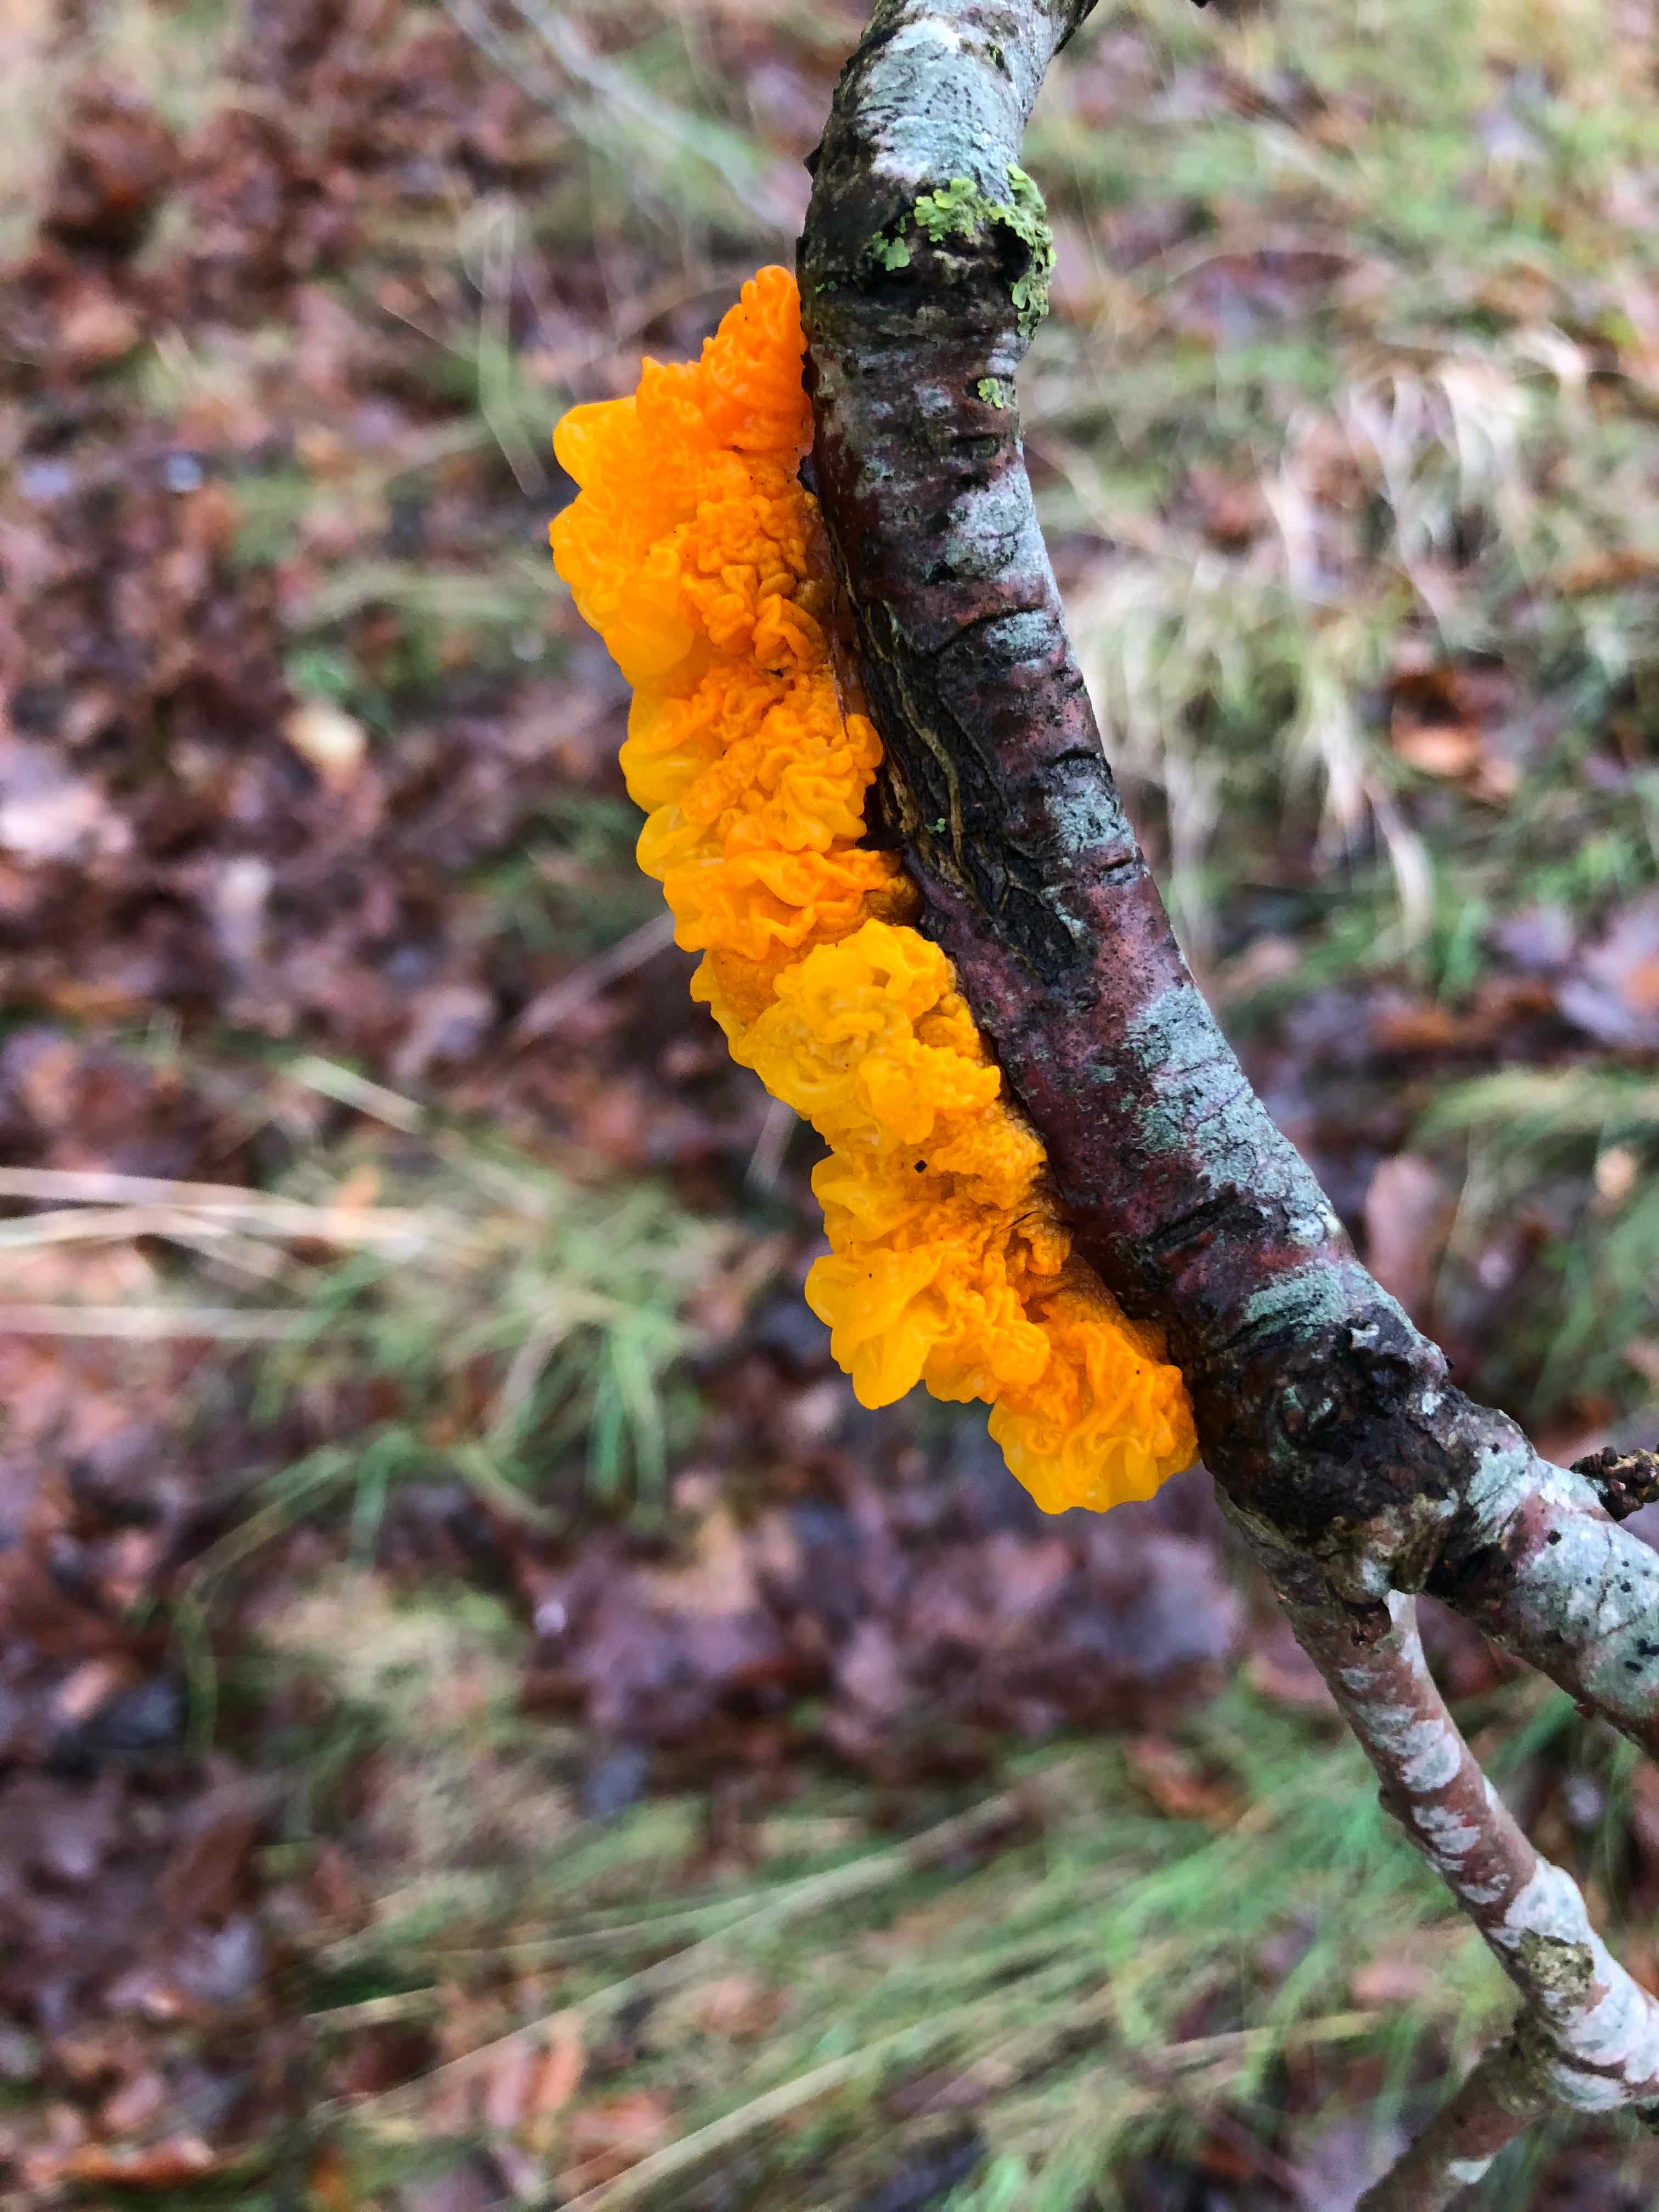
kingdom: Fungi
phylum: Basidiomycota
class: Tremellomycetes
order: Tremellales
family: Tremellaceae
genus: Tremella
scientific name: Tremella mesenterica
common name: gul bævresvamp
